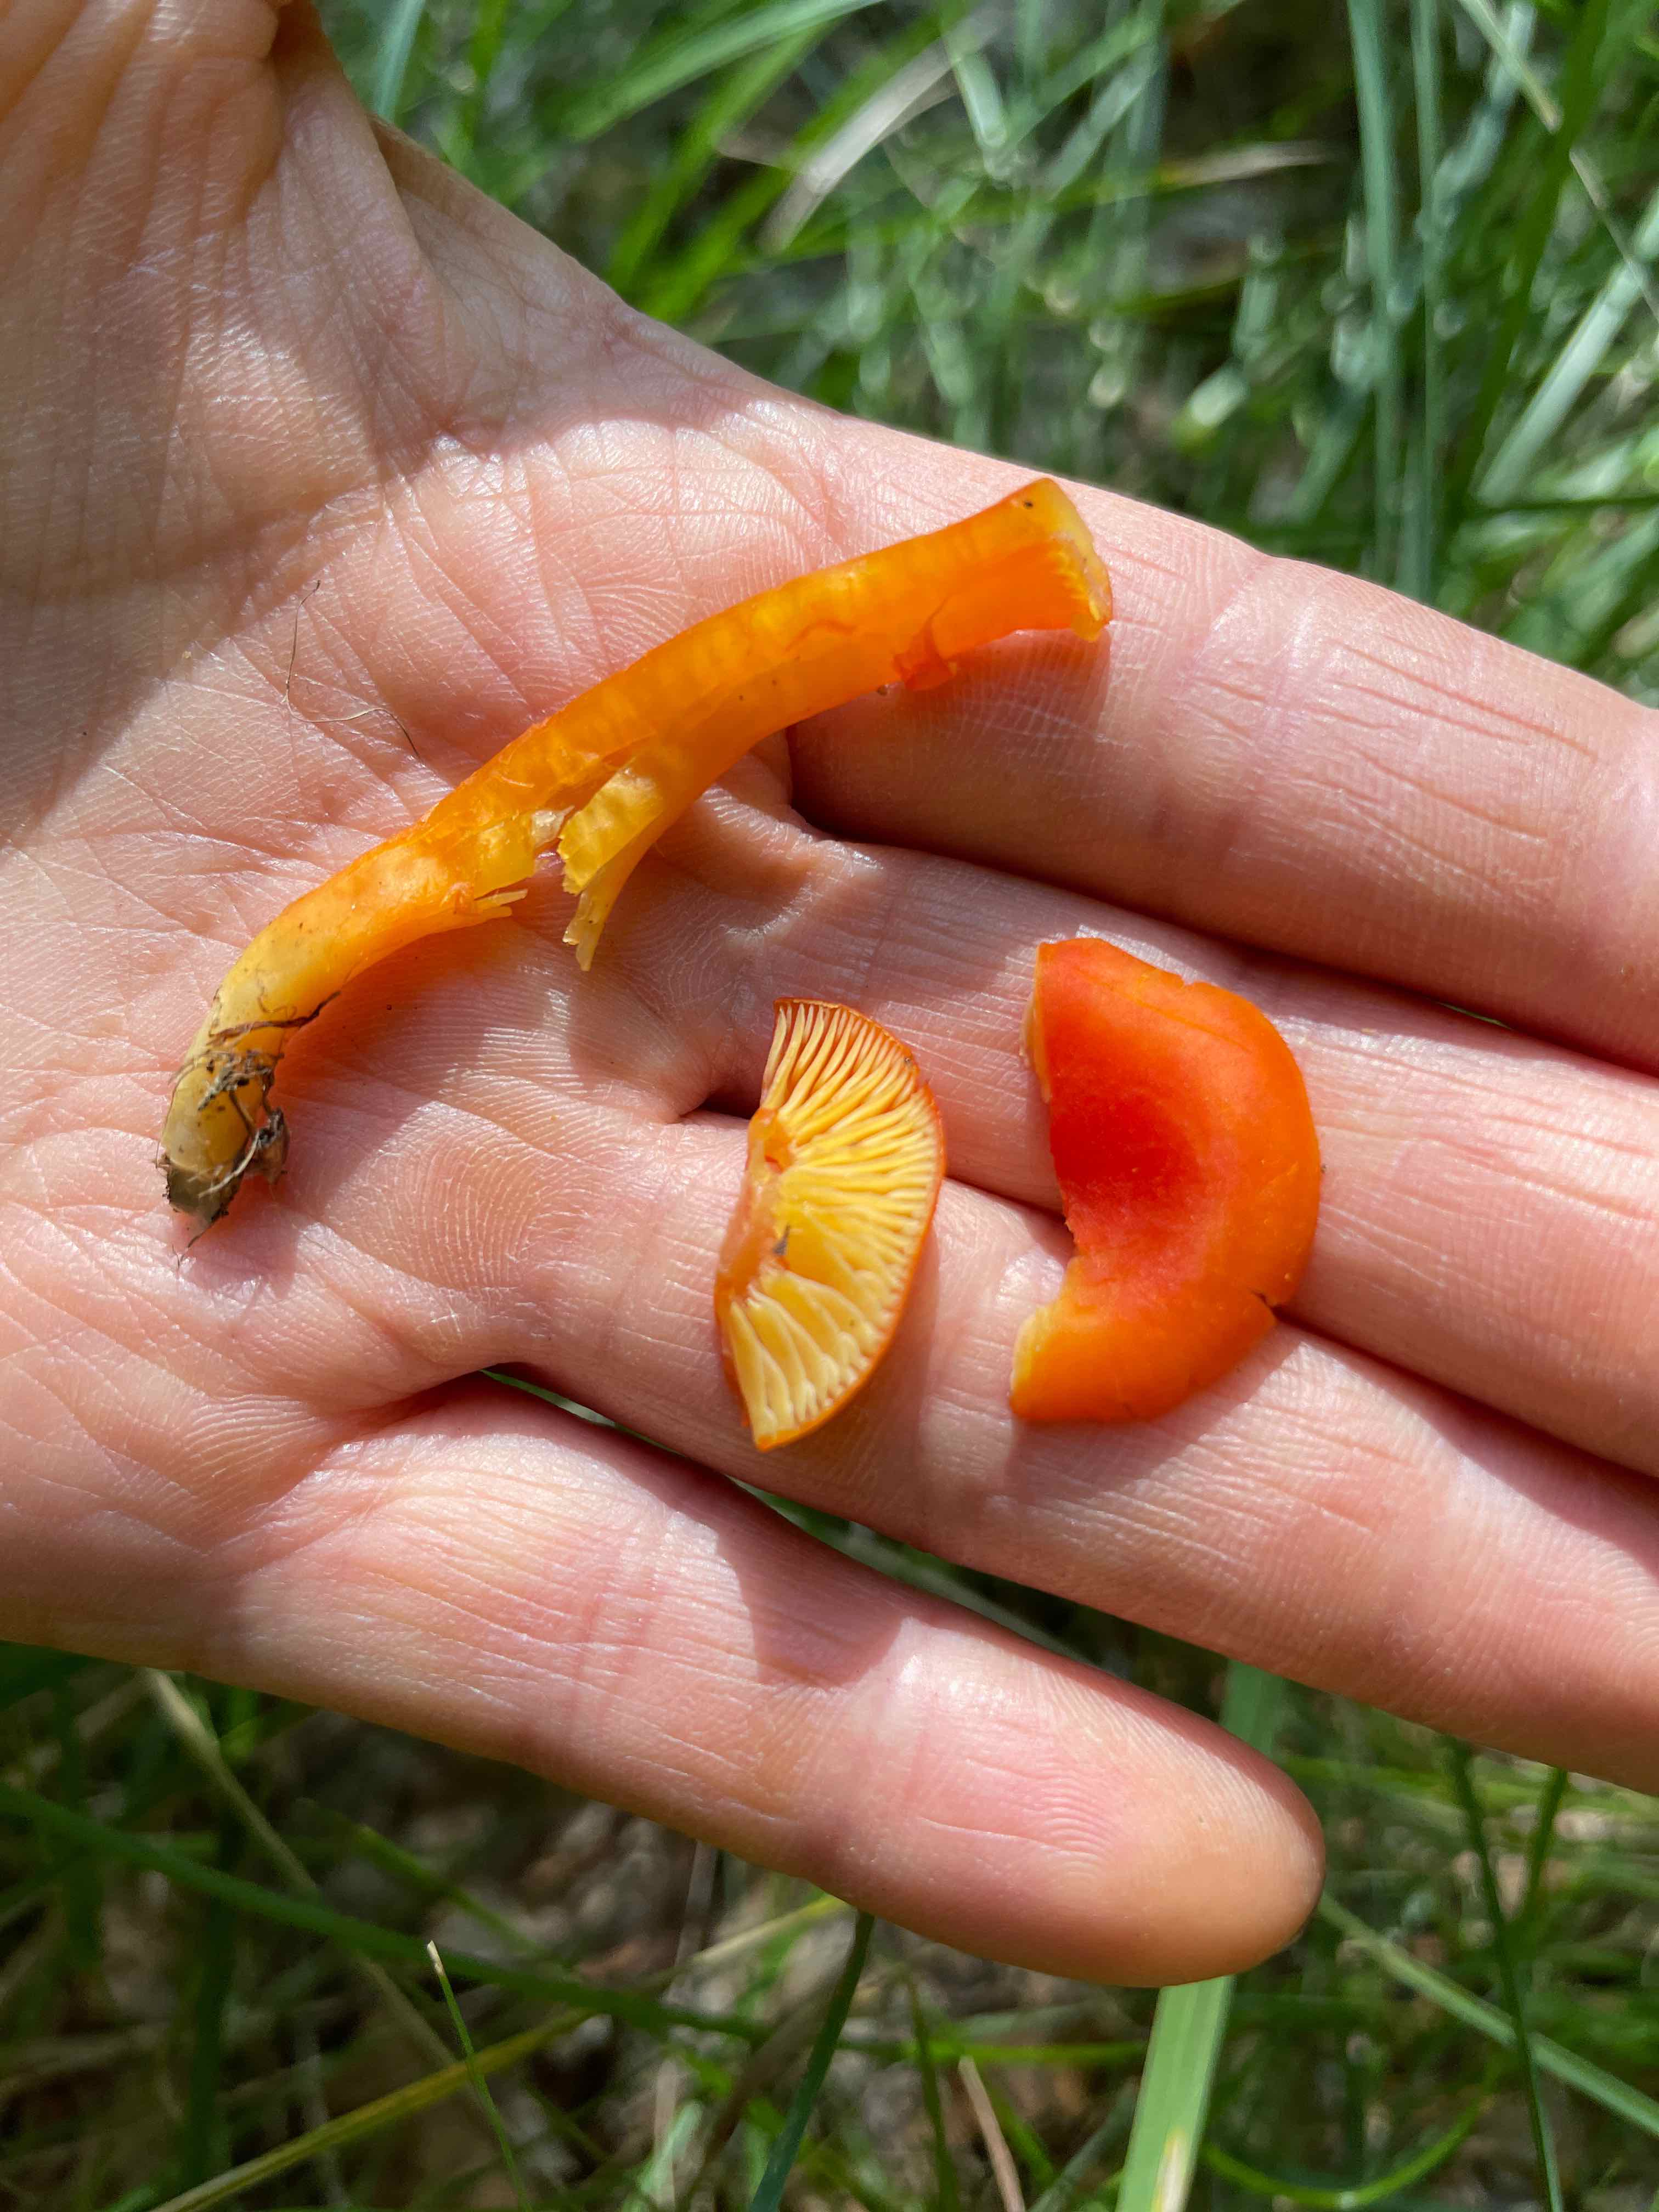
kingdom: Fungi
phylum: Basidiomycota
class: Agaricomycetes
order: Agaricales
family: Hygrophoraceae
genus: Hygrocybe
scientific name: Hygrocybe miniata
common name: mønje-vokshat
